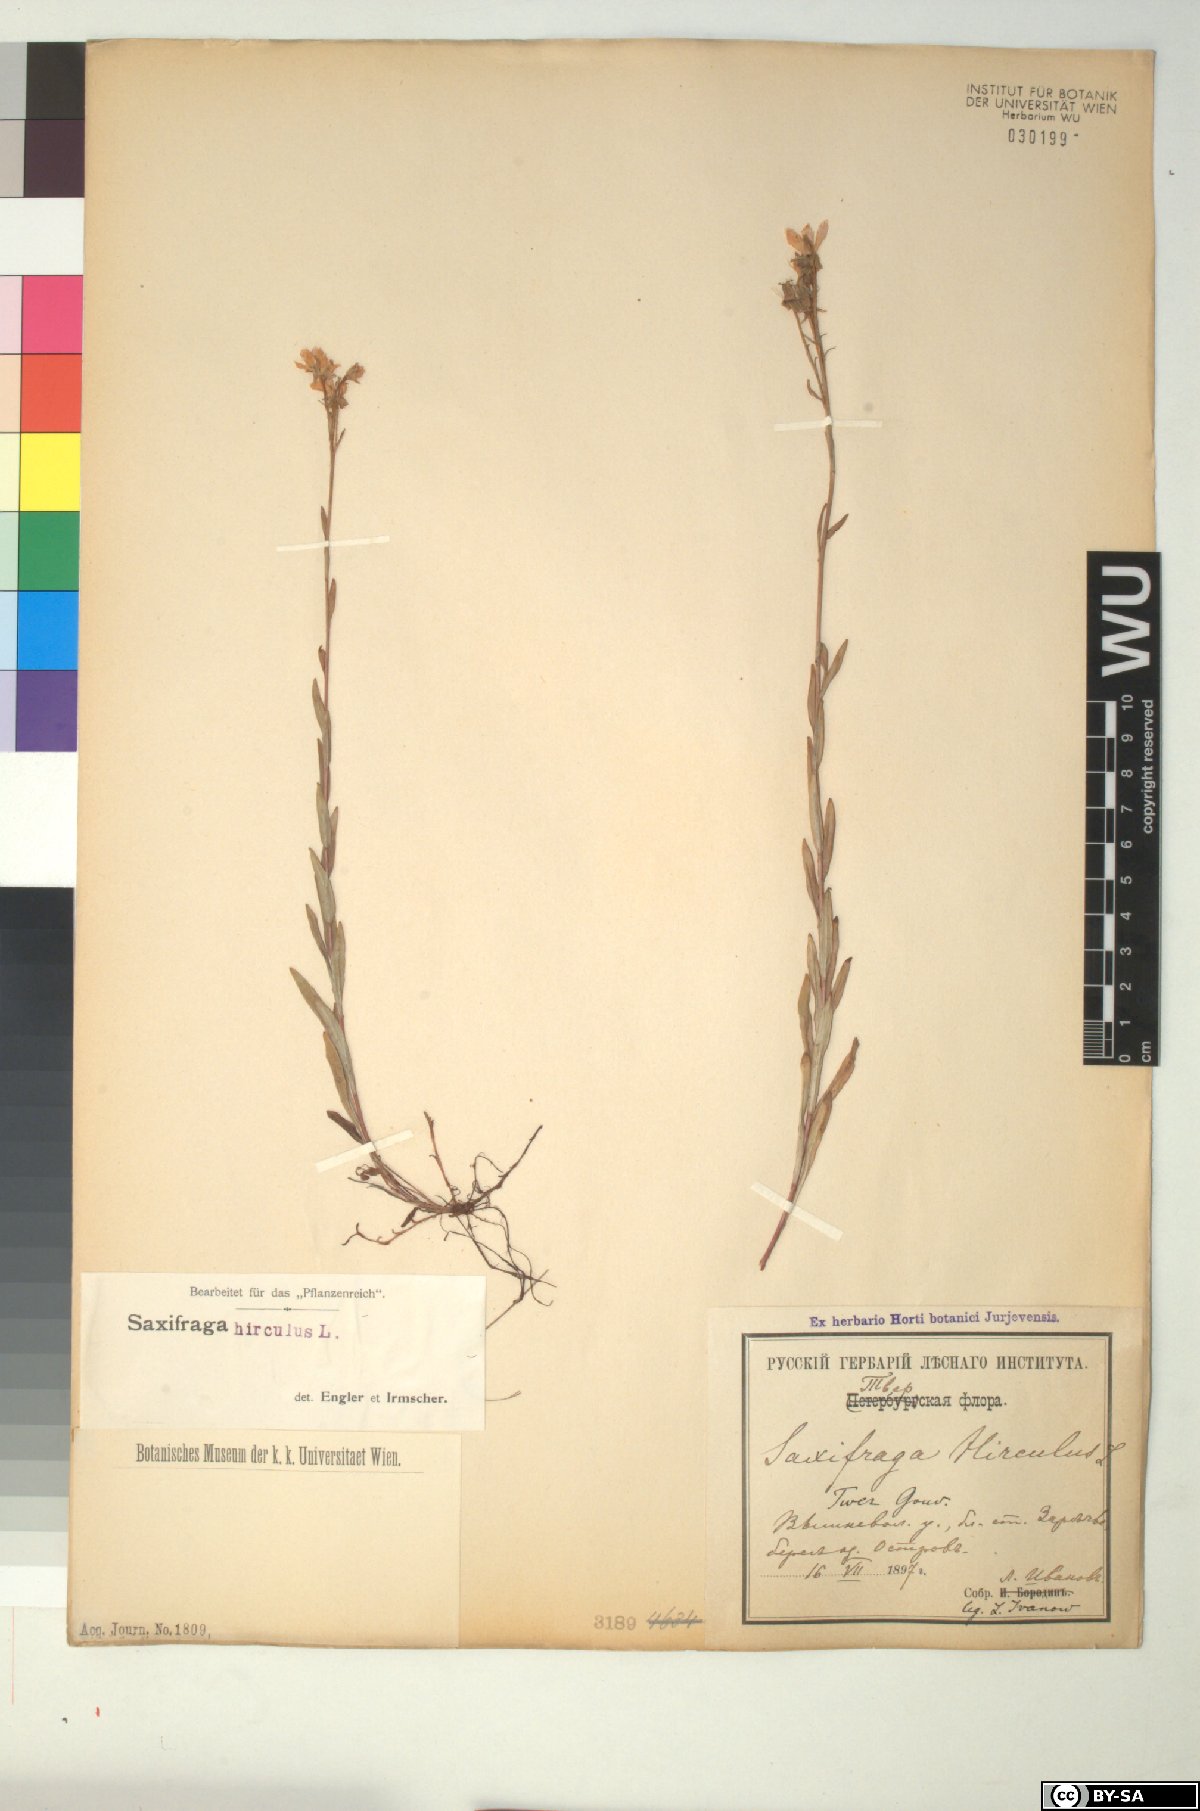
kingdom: Plantae
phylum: Tracheophyta
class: Magnoliopsida
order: Saxifragales
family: Saxifragaceae
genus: Saxifraga
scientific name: Saxifraga hirculus
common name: Yellow marsh saxifrage
